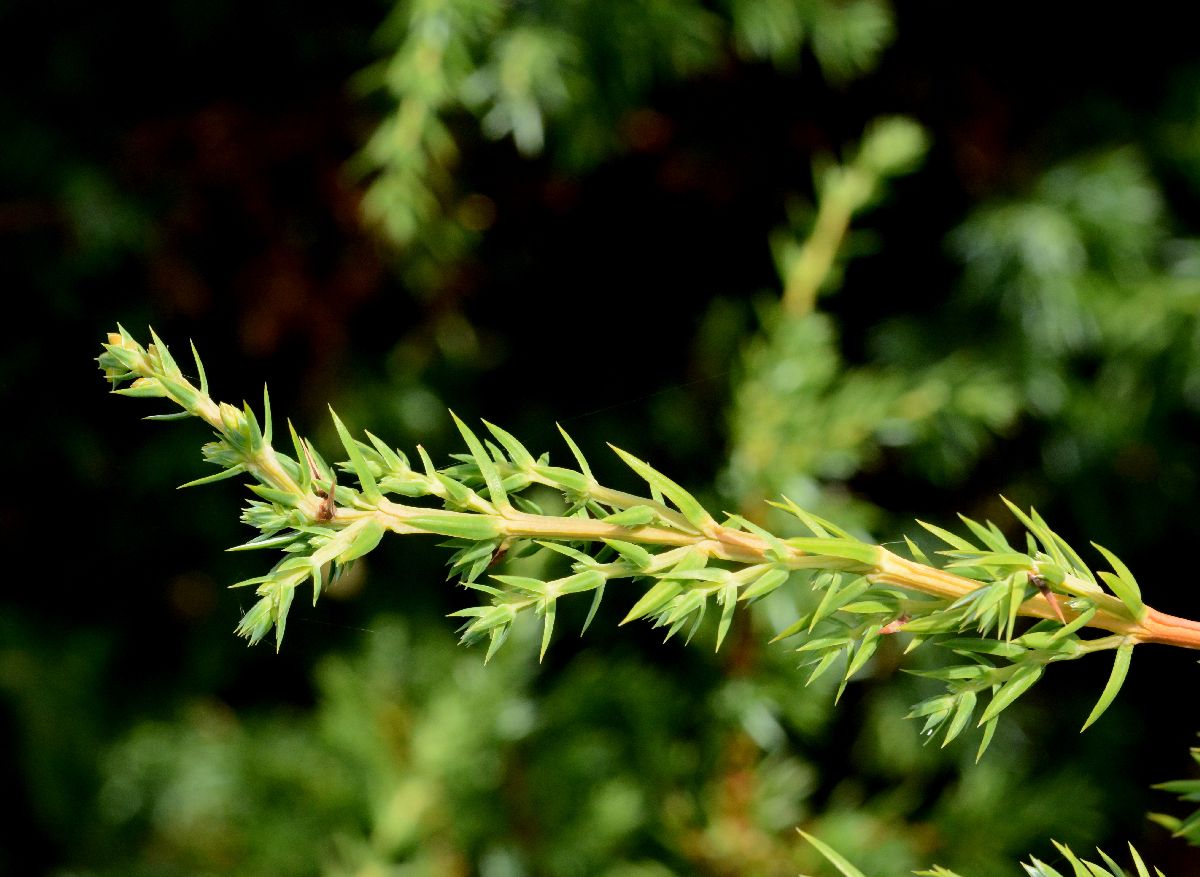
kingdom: Plantae
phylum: Tracheophyta
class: Pinopsida
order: Pinales
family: Cupressaceae
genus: Juniperus
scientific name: Juniperus communis
